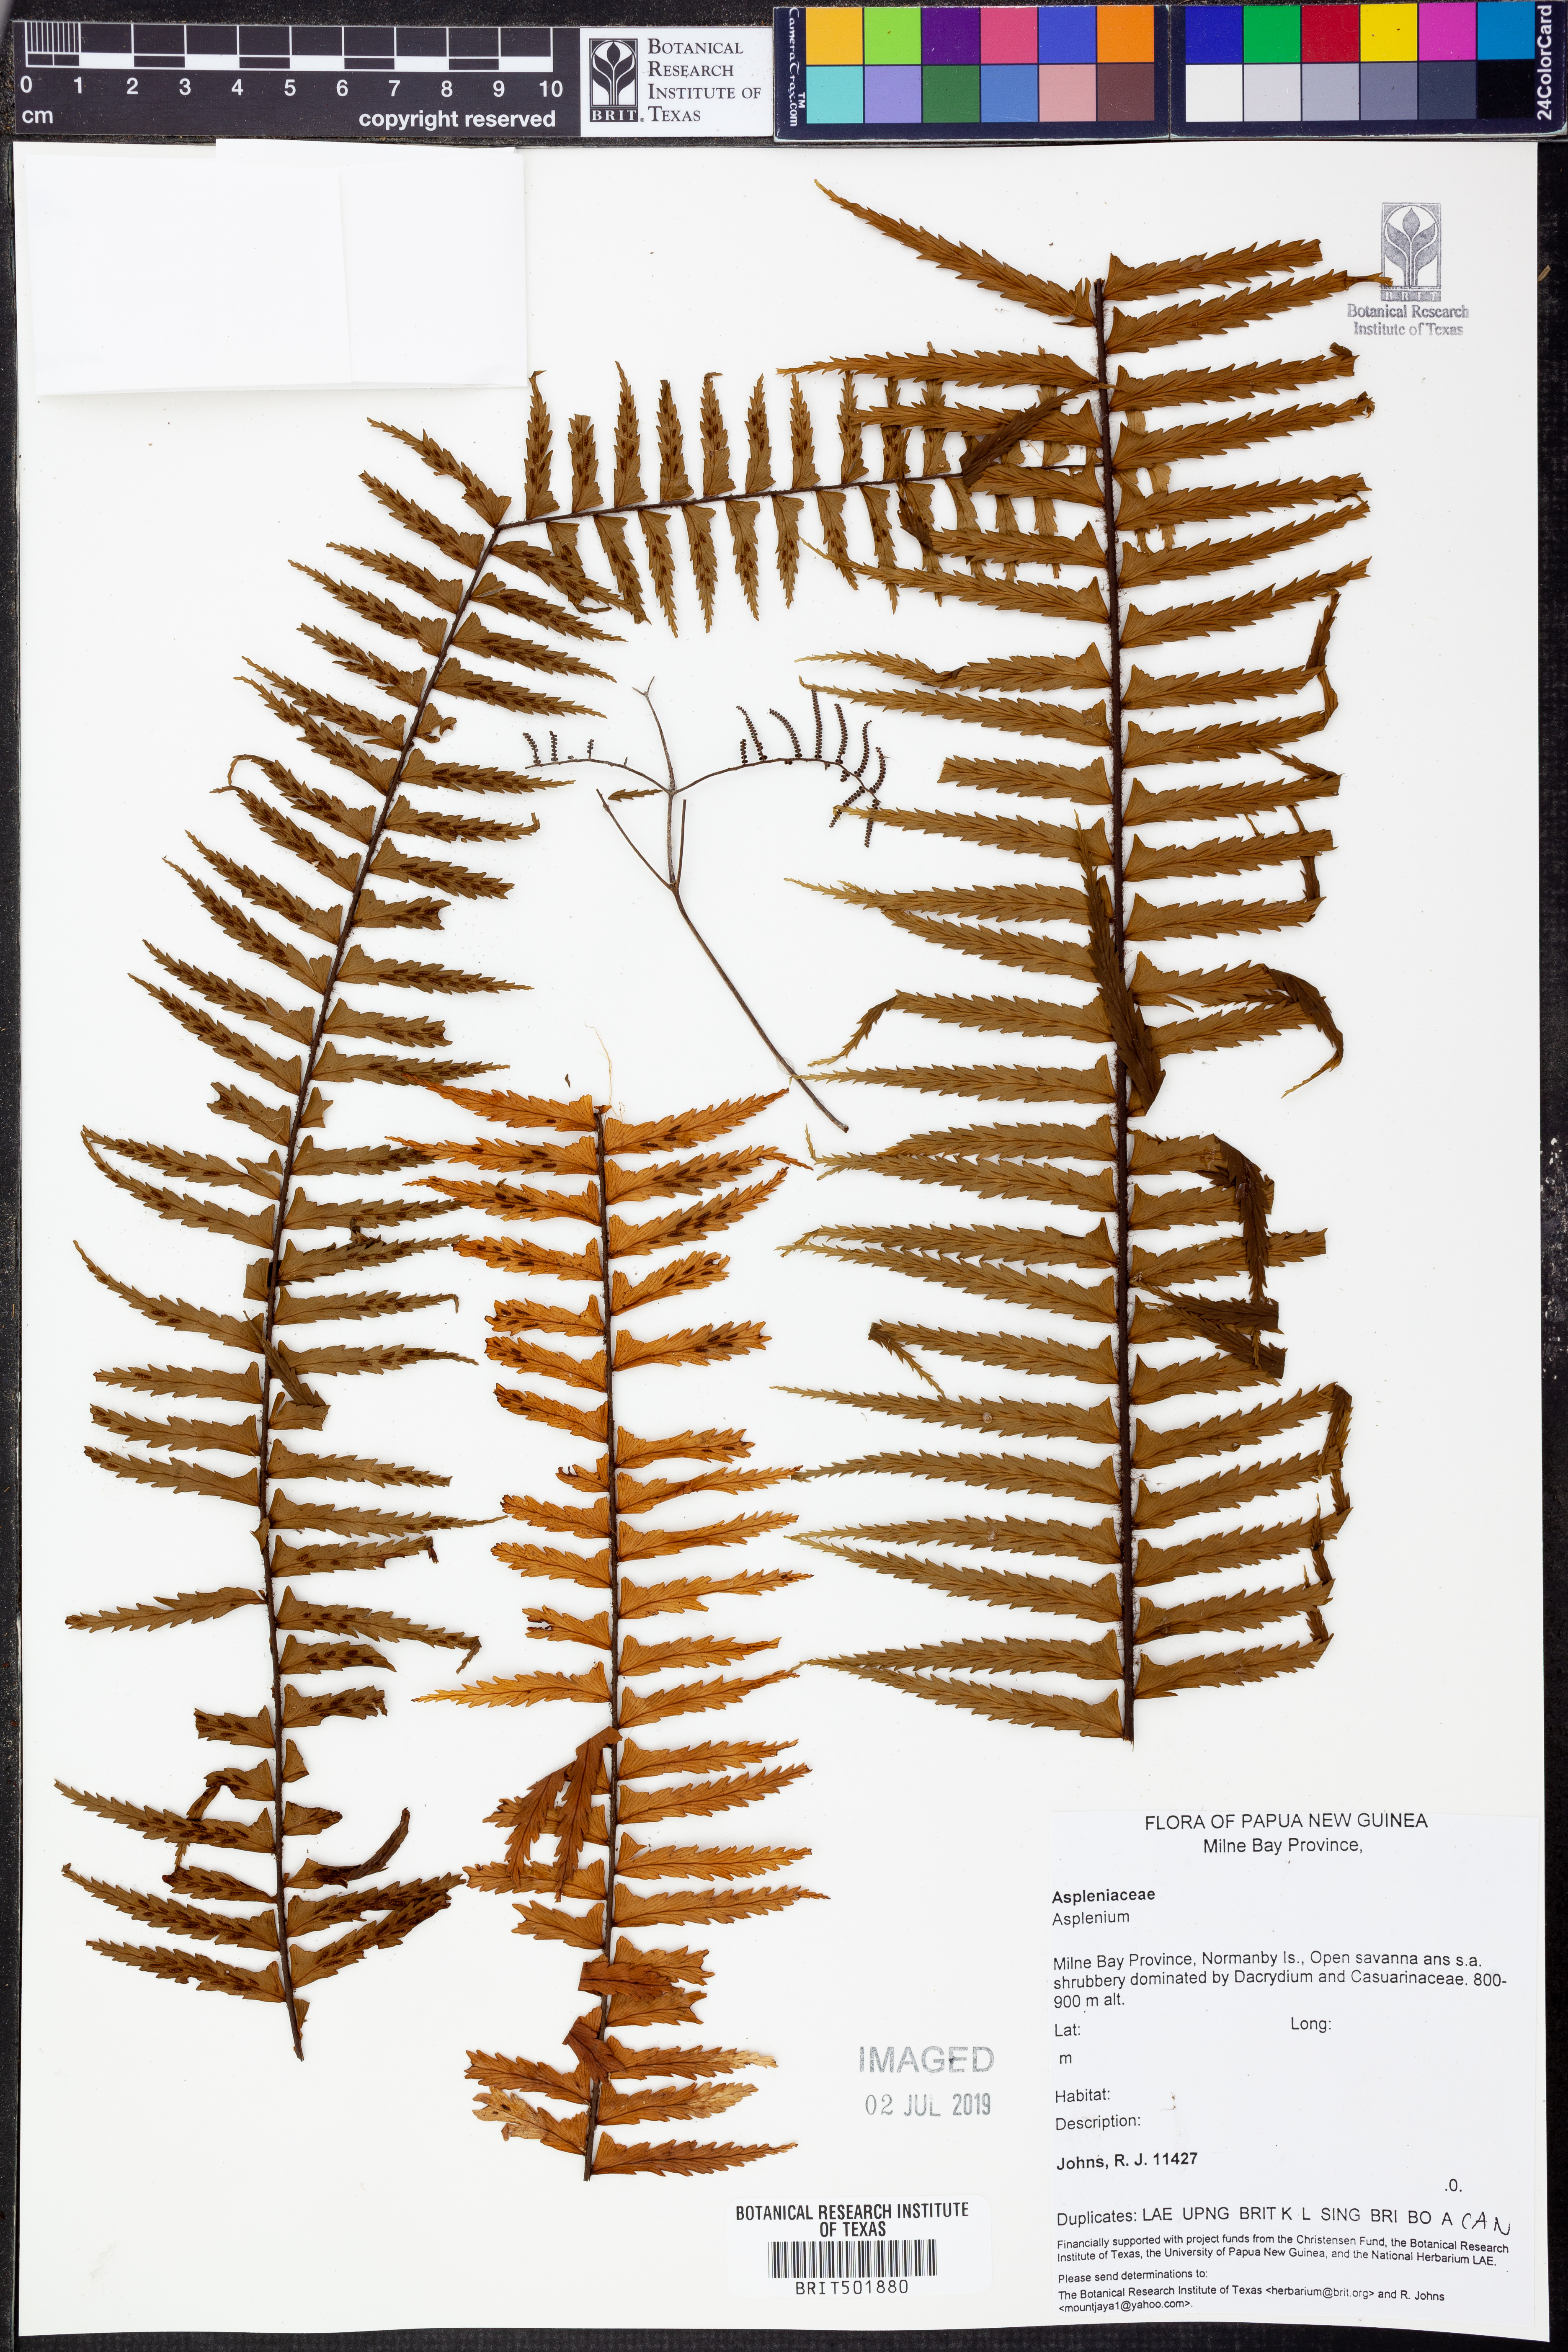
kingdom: Plantae
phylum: Tracheophyta
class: Polypodiopsida
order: Polypodiales
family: Aspleniaceae
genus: Asplenium
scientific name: Asplenium
